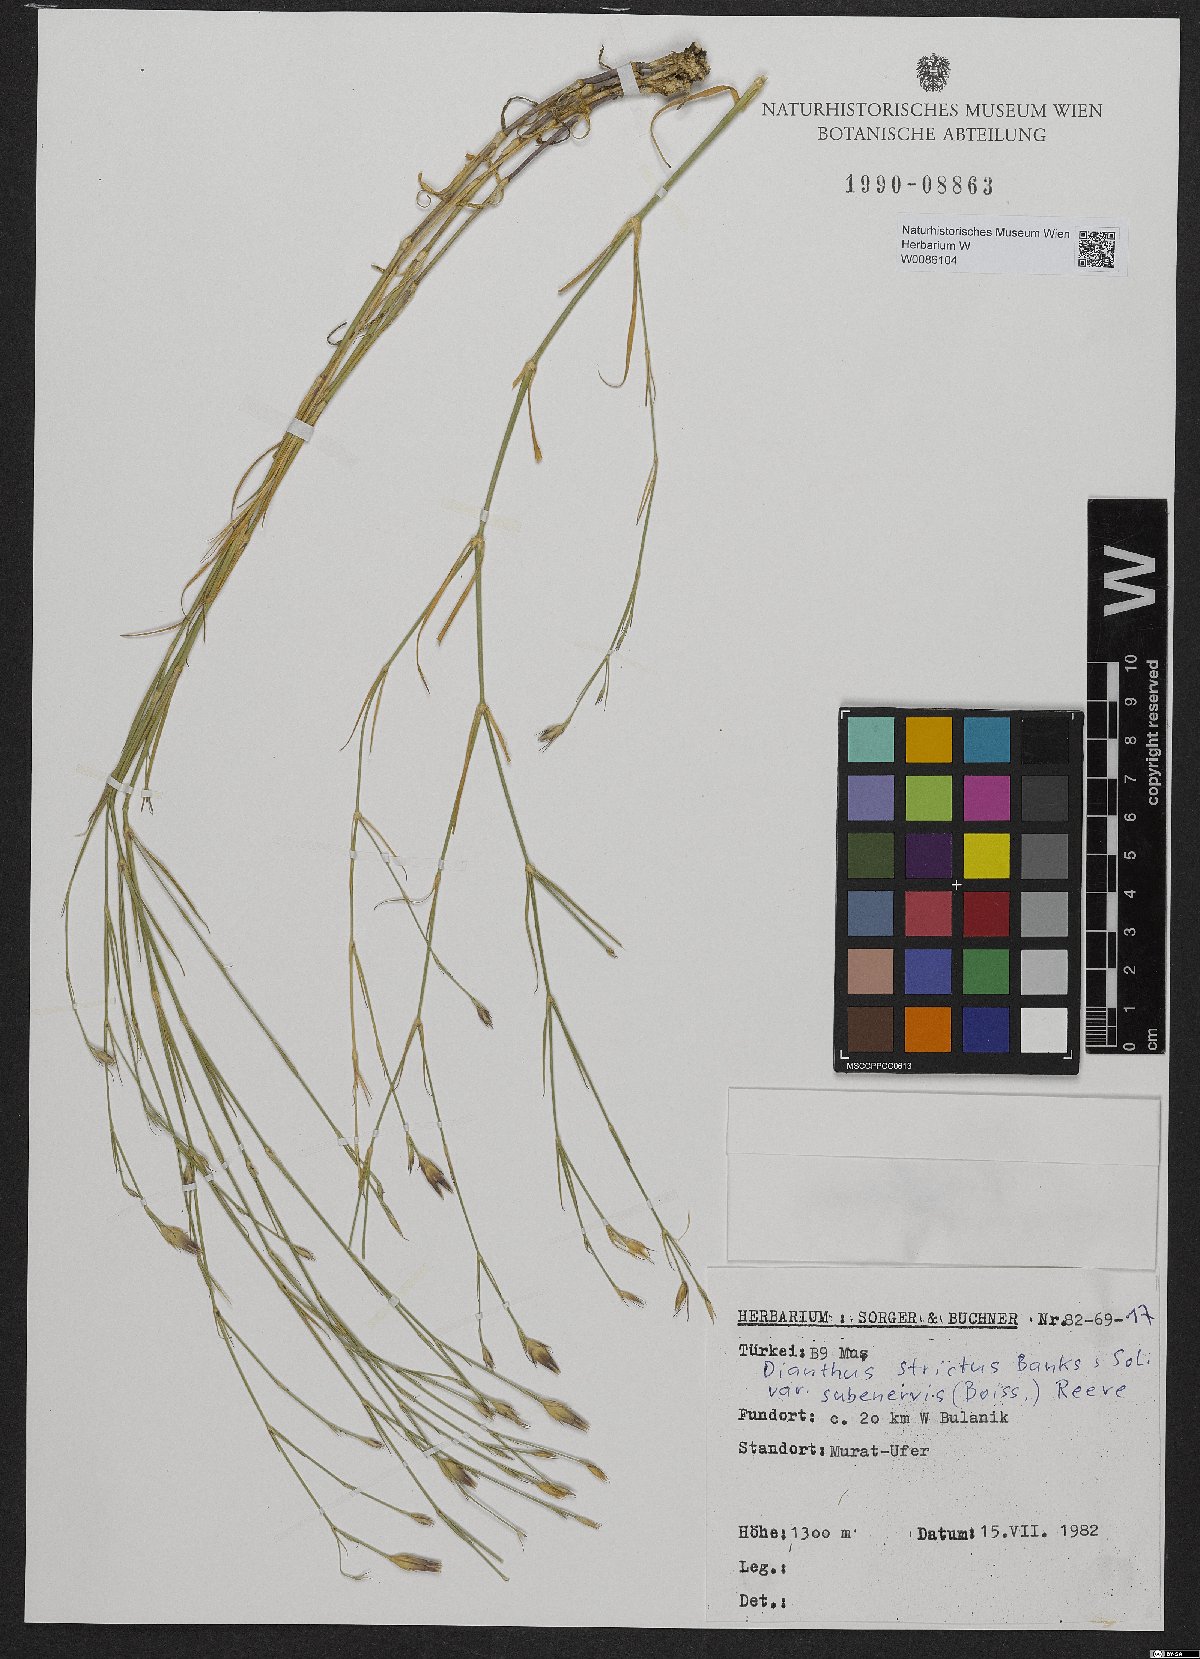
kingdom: Plantae
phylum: Tracheophyta
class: Magnoliopsida
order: Caryophyllales
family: Caryophyllaceae
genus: Dianthus
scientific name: Dianthus strictus
